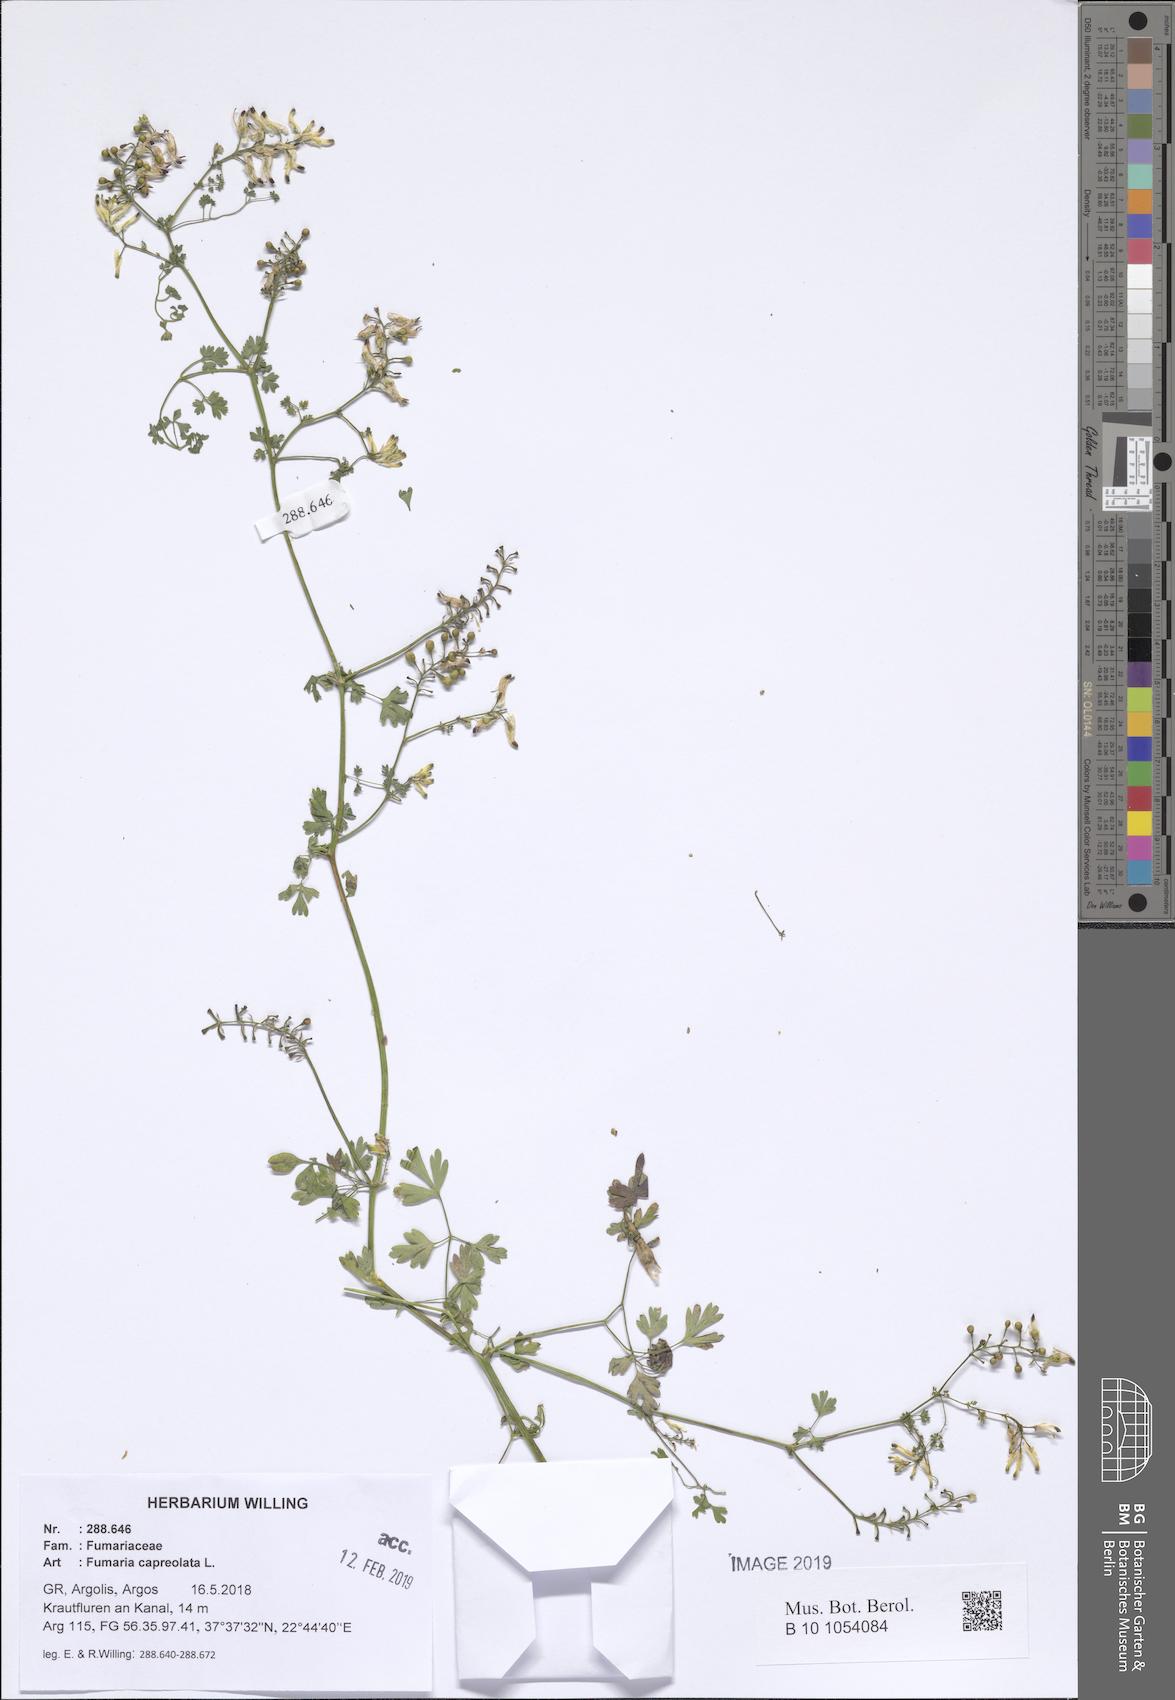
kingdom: Plantae
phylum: Tracheophyta
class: Magnoliopsida
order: Ranunculales
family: Papaveraceae
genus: Fumaria
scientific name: Fumaria capreolata
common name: White ramping-fumitory
